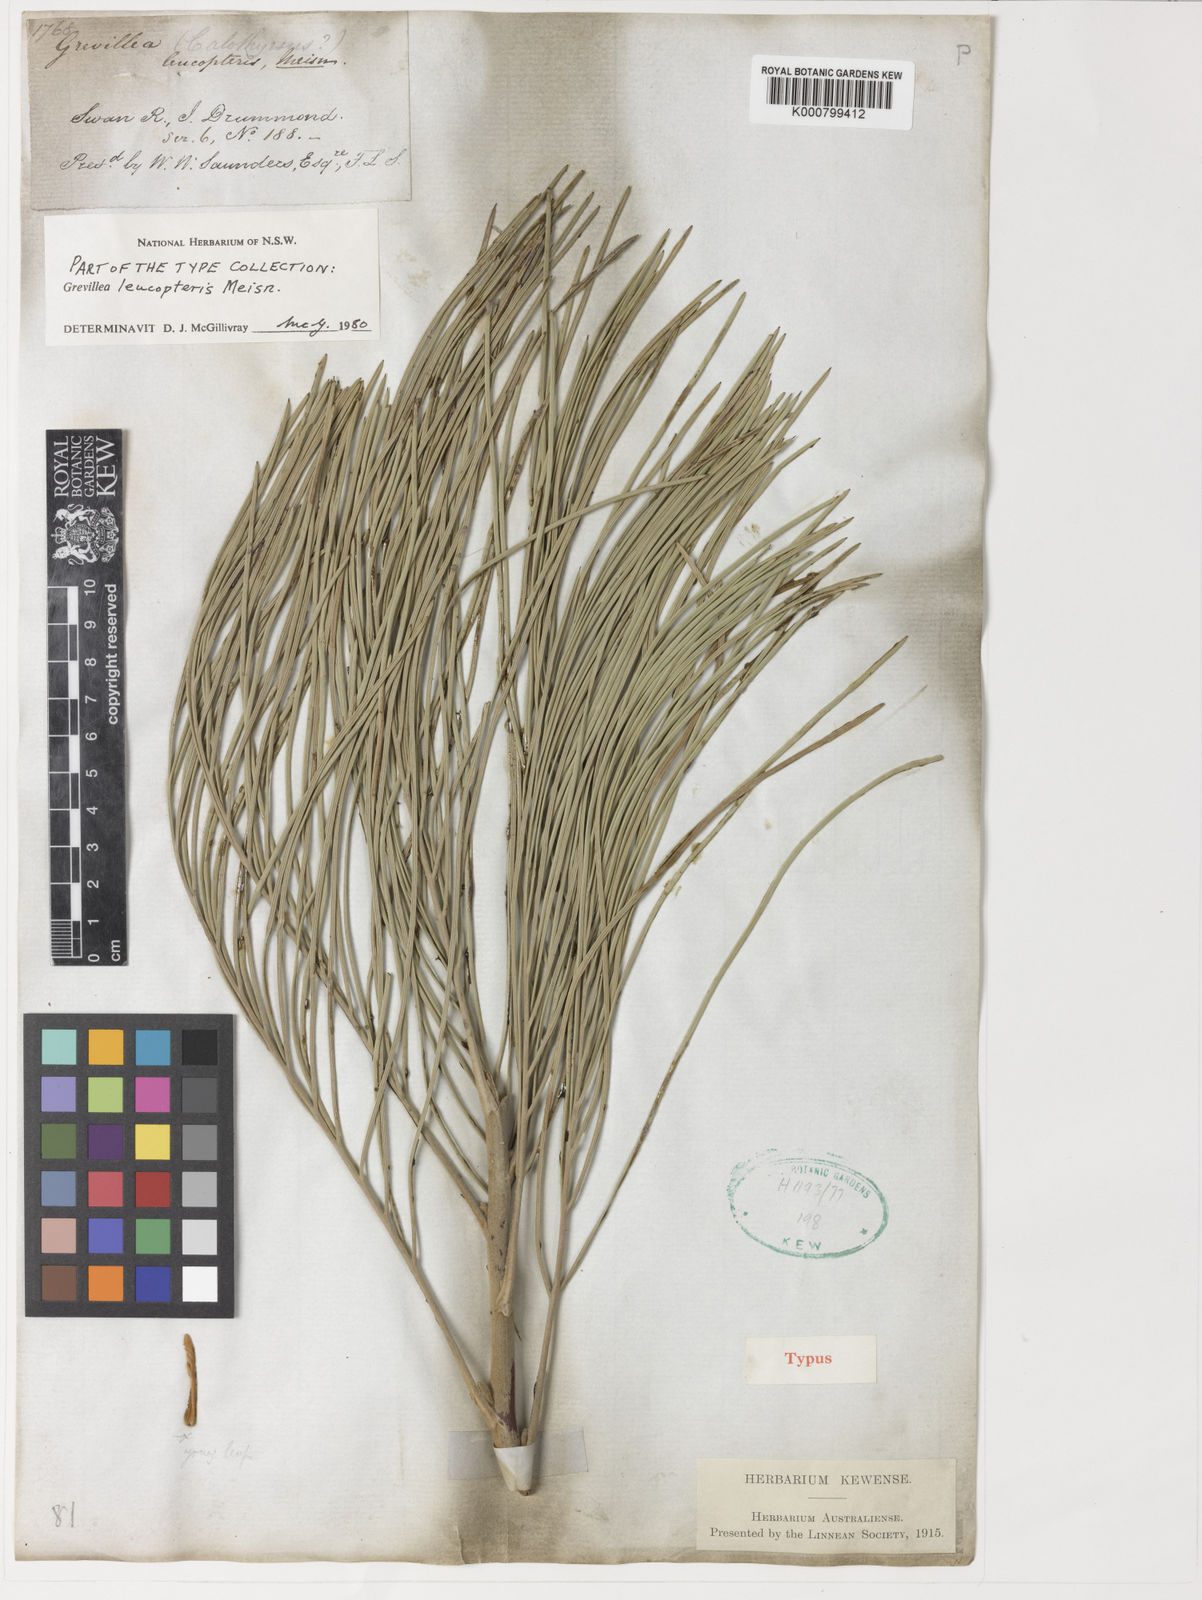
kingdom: Plantae
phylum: Tracheophyta
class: Magnoliopsida
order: Proteales
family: Proteaceae
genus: Grevillea
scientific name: Grevillea leucopteris
